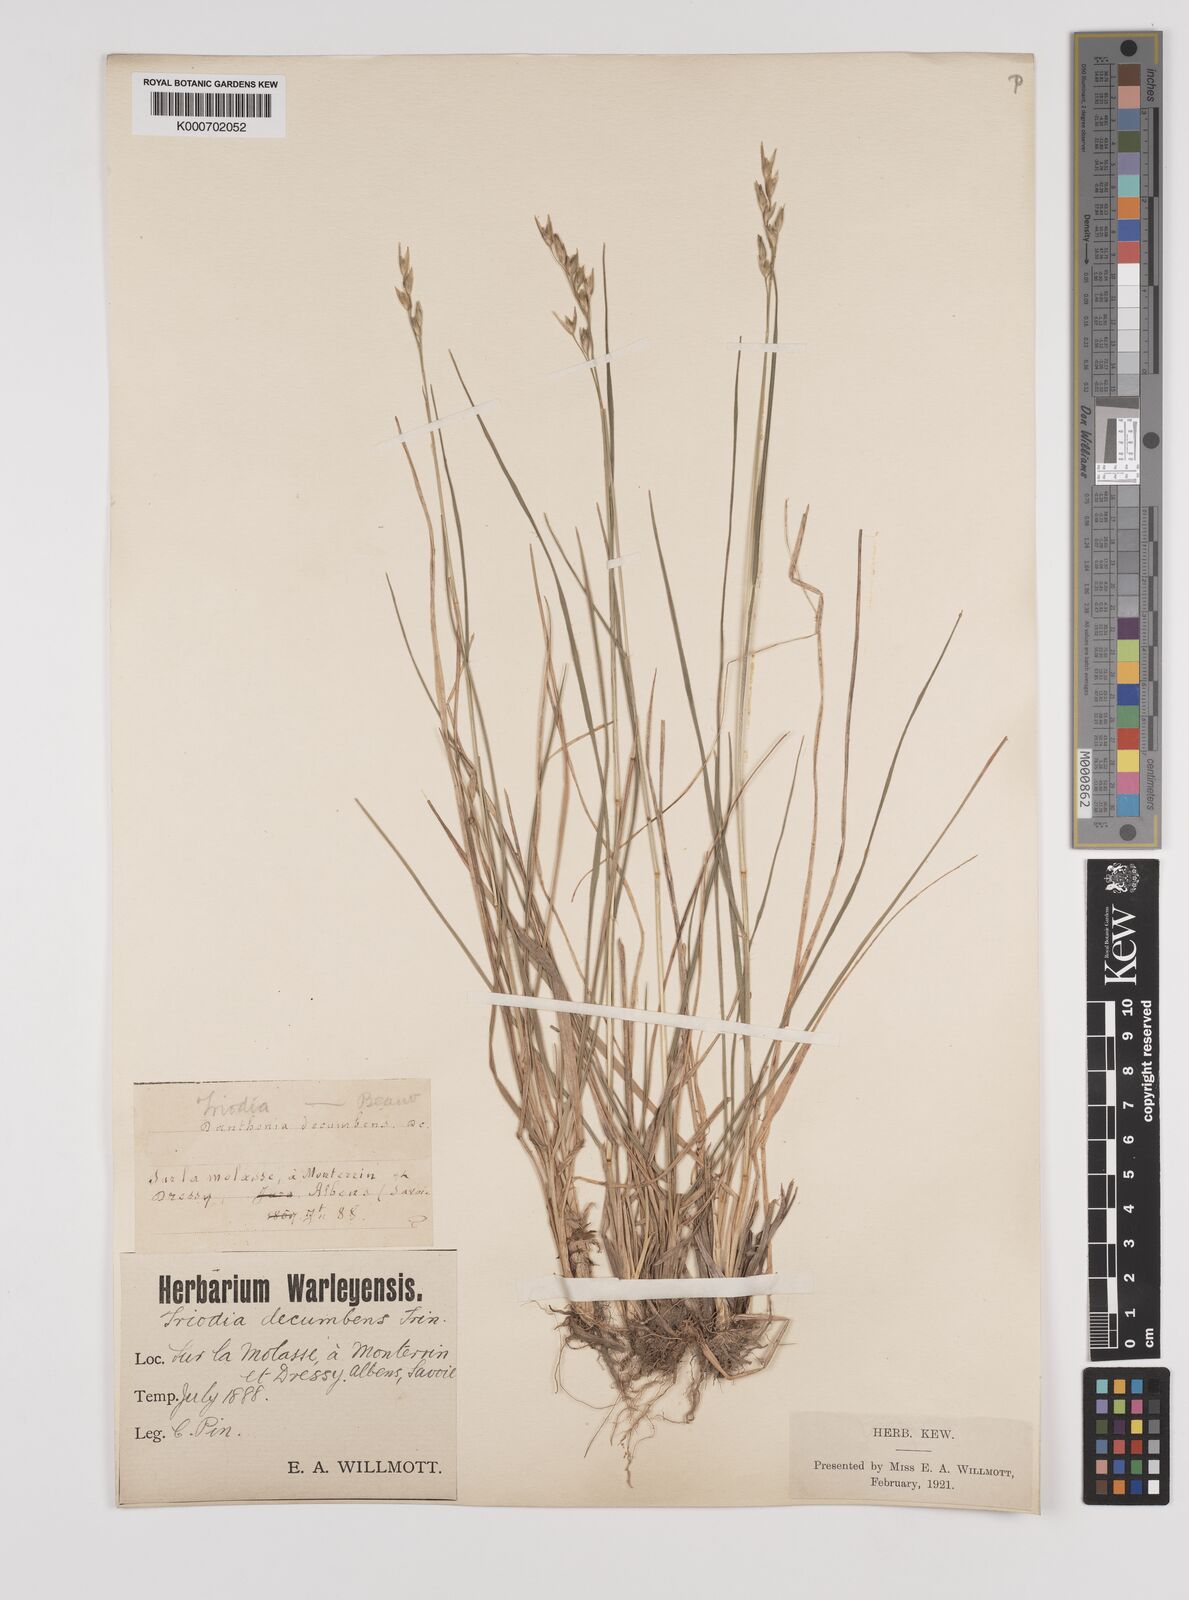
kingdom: Plantae
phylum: Tracheophyta
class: Liliopsida
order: Poales
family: Poaceae
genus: Danthonia
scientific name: Danthonia decumbens
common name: Common heathgrass
